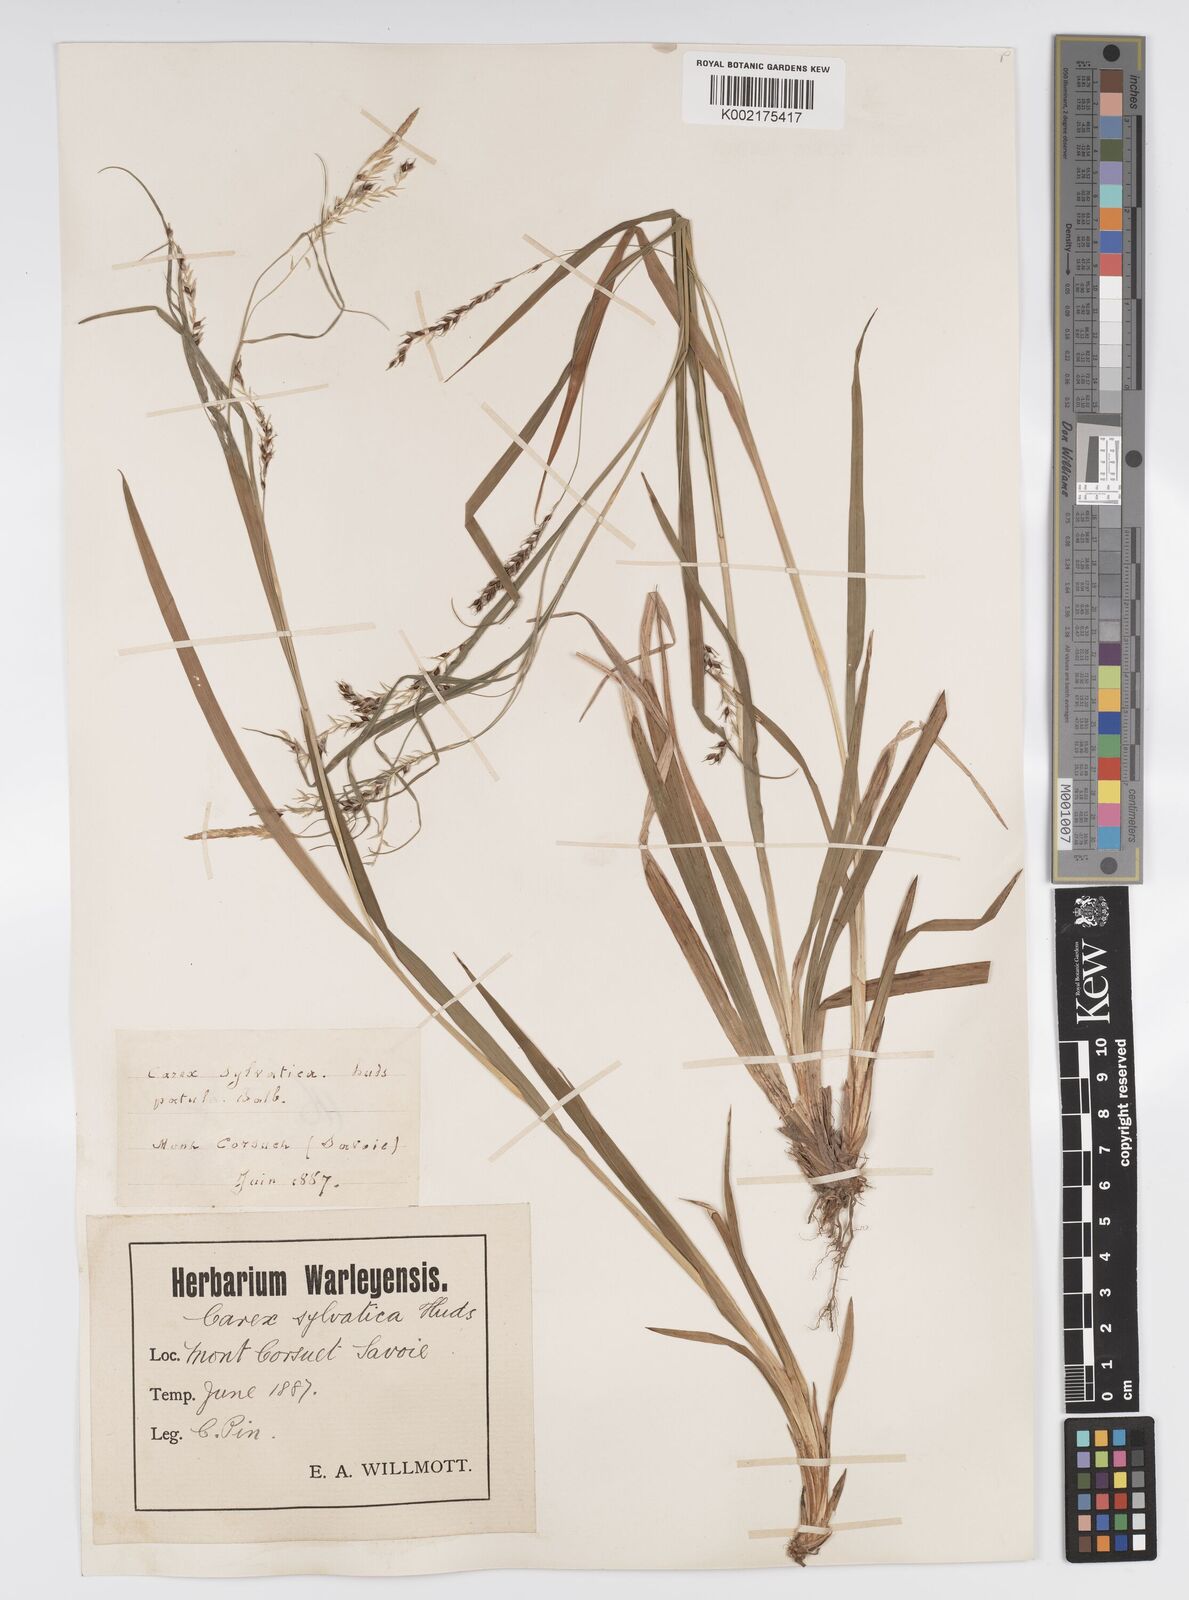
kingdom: Plantae
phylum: Tracheophyta
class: Liliopsida
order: Poales
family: Cyperaceae
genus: Carex
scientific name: Carex sylvatica
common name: Wood-sedge
